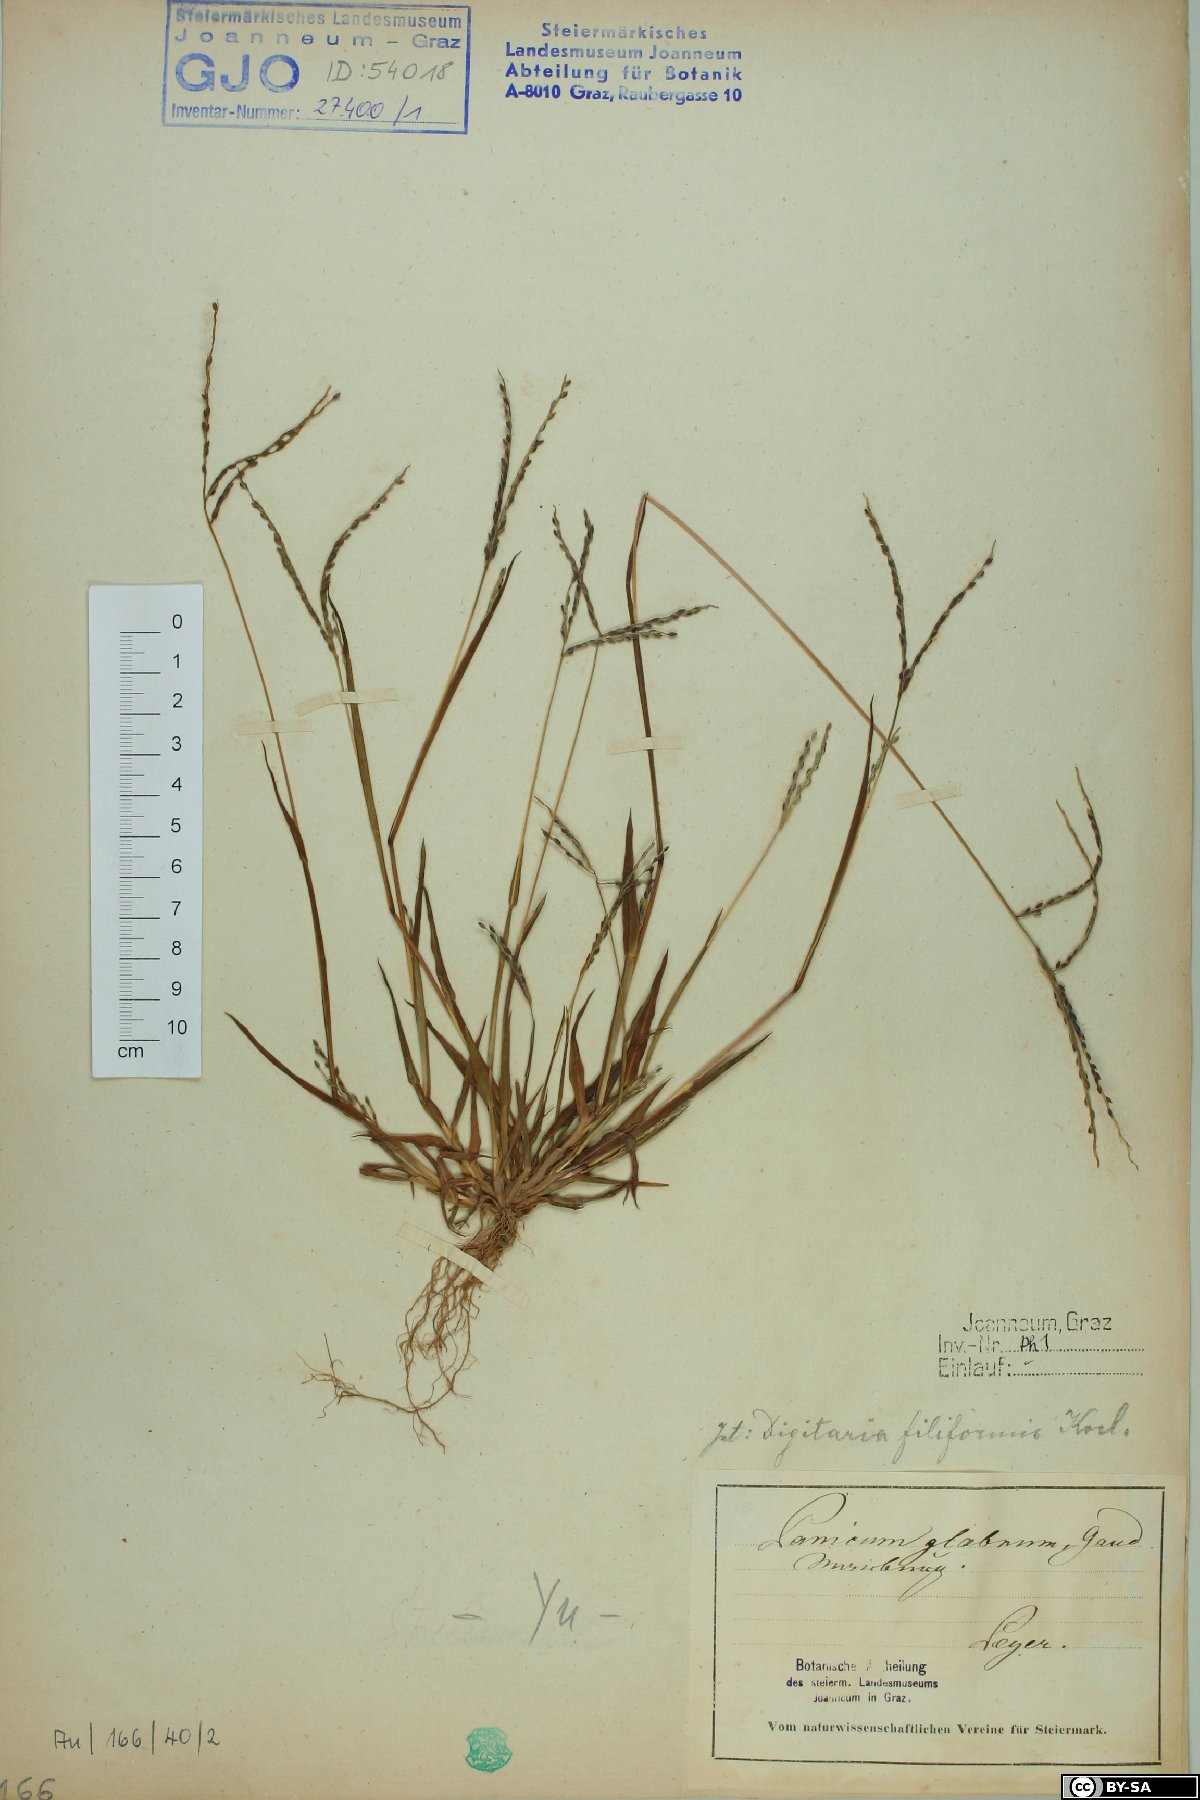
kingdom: Plantae
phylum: Tracheophyta
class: Liliopsida
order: Poales
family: Poaceae
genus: Digitaria
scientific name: Digitaria ischaemum
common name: Smooth crabgrass
